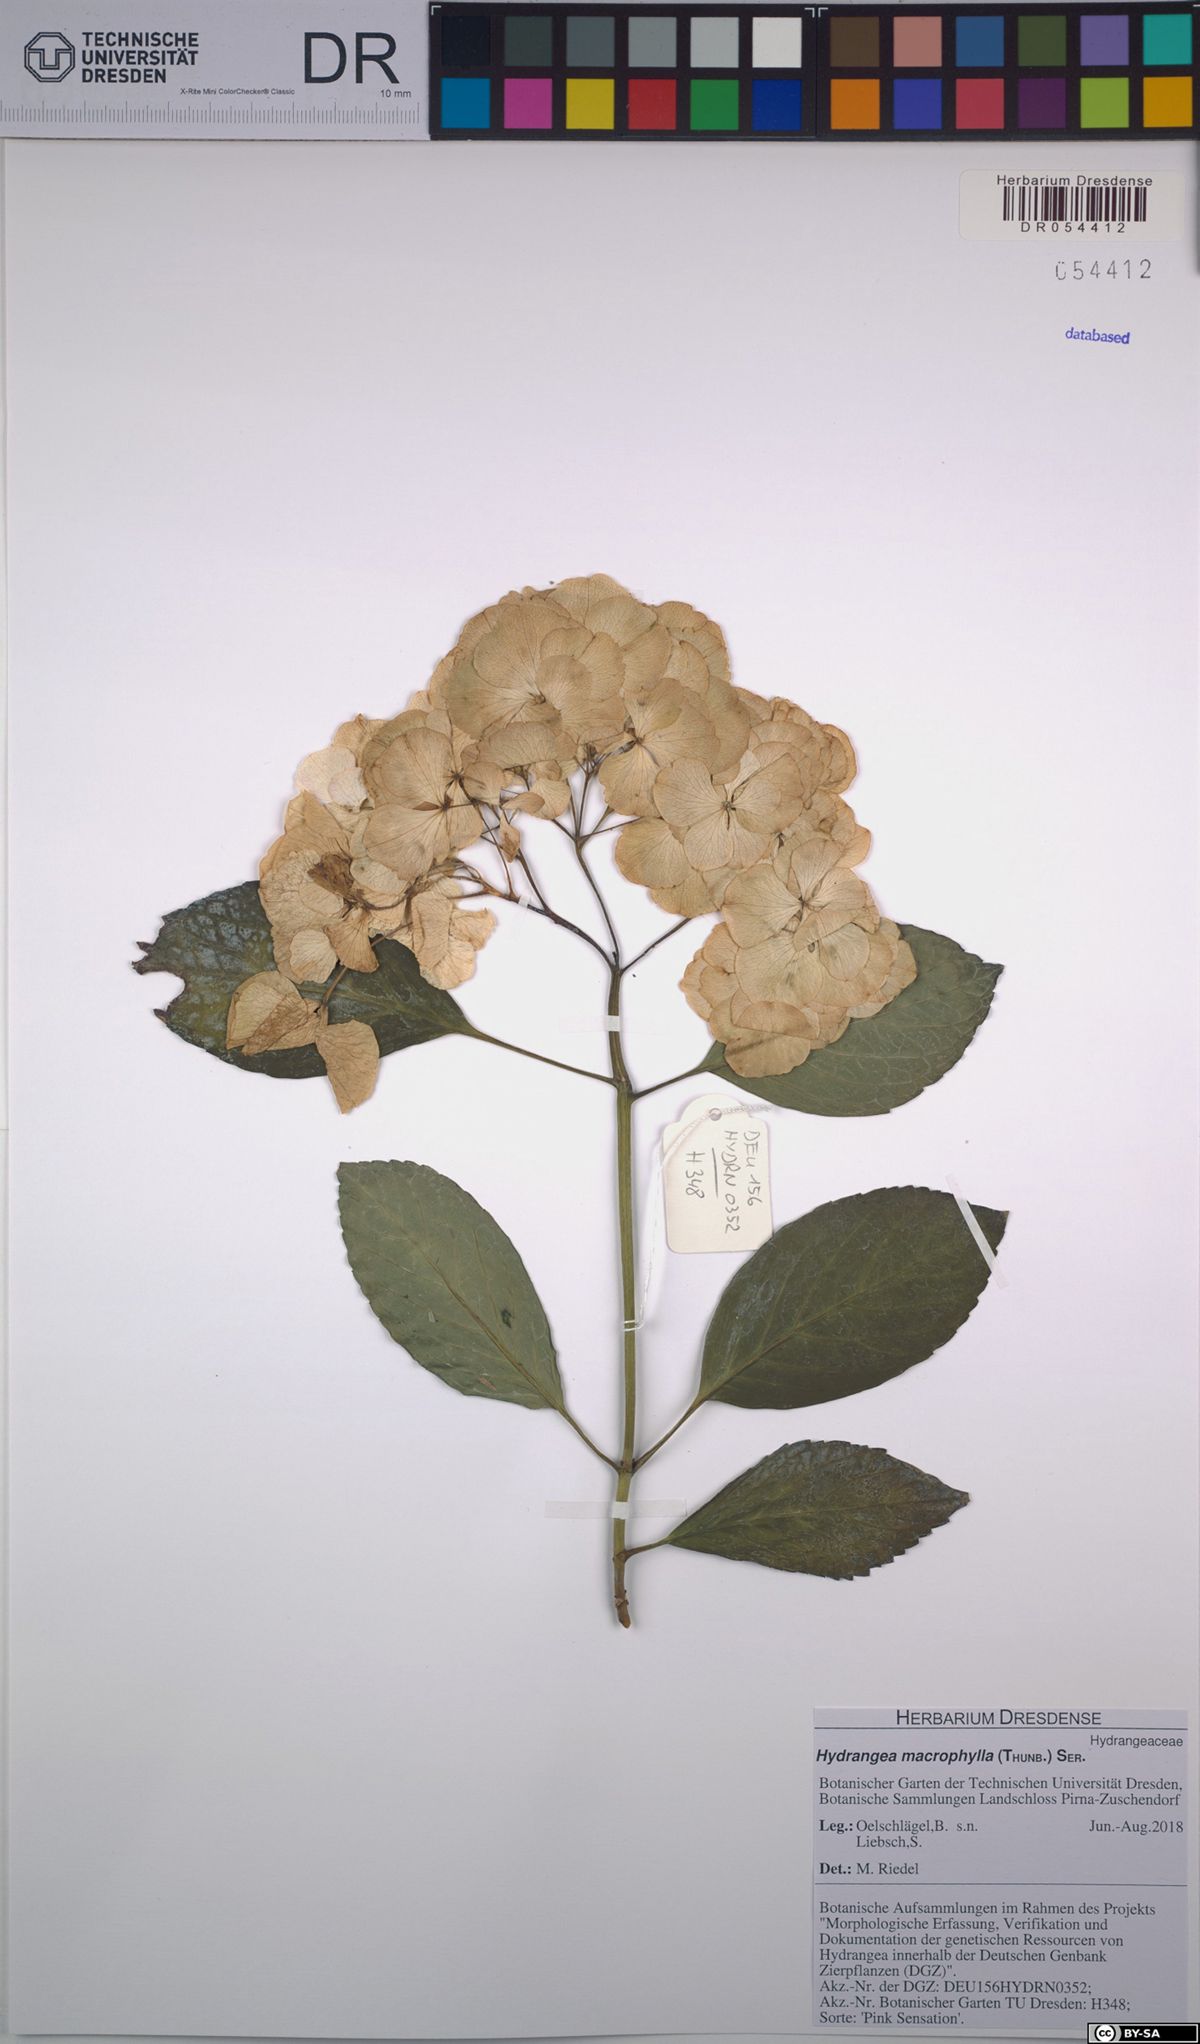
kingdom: Plantae
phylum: Tracheophyta
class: Magnoliopsida
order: Cornales
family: Hydrangeaceae
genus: Hydrangea
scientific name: Hydrangea macrophylla
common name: Hydrangea
